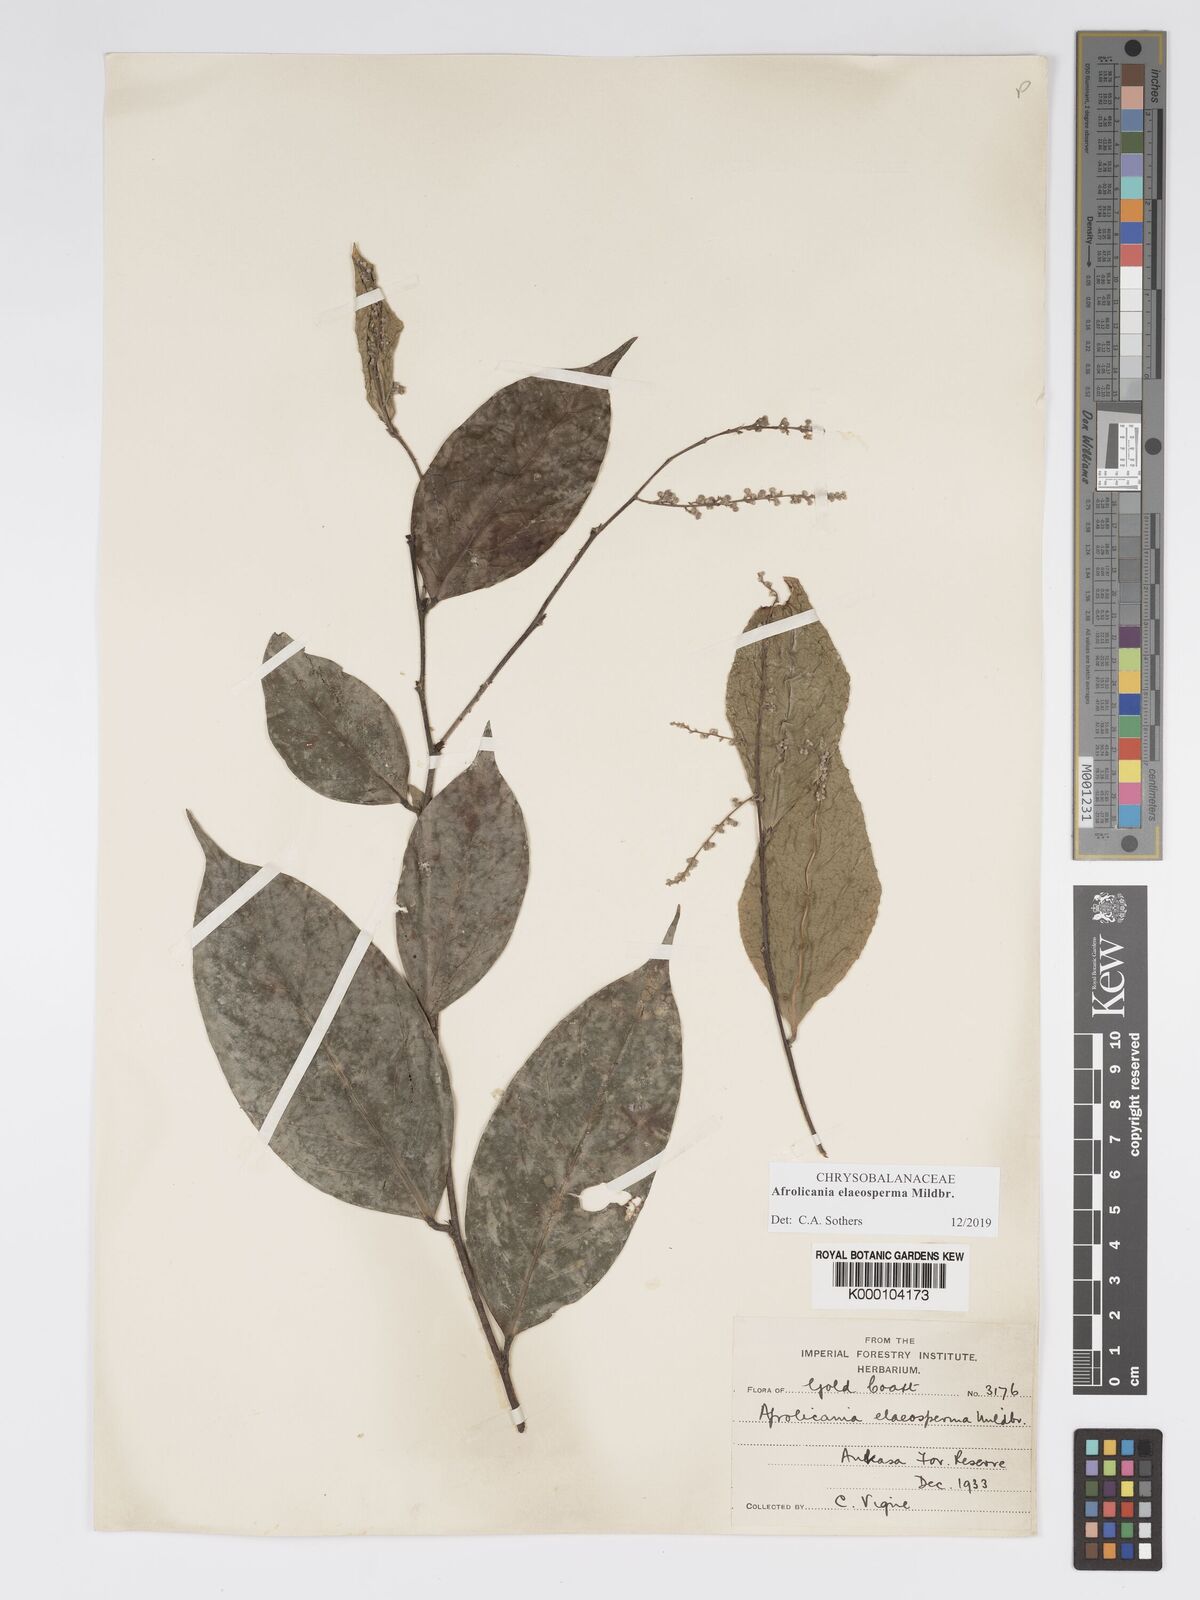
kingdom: Plantae
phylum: Tracheophyta
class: Magnoliopsida
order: Malpighiales
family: Chrysobalanaceae
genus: Afrolicania
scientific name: Afrolicania elaeosperma
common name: Nikko
